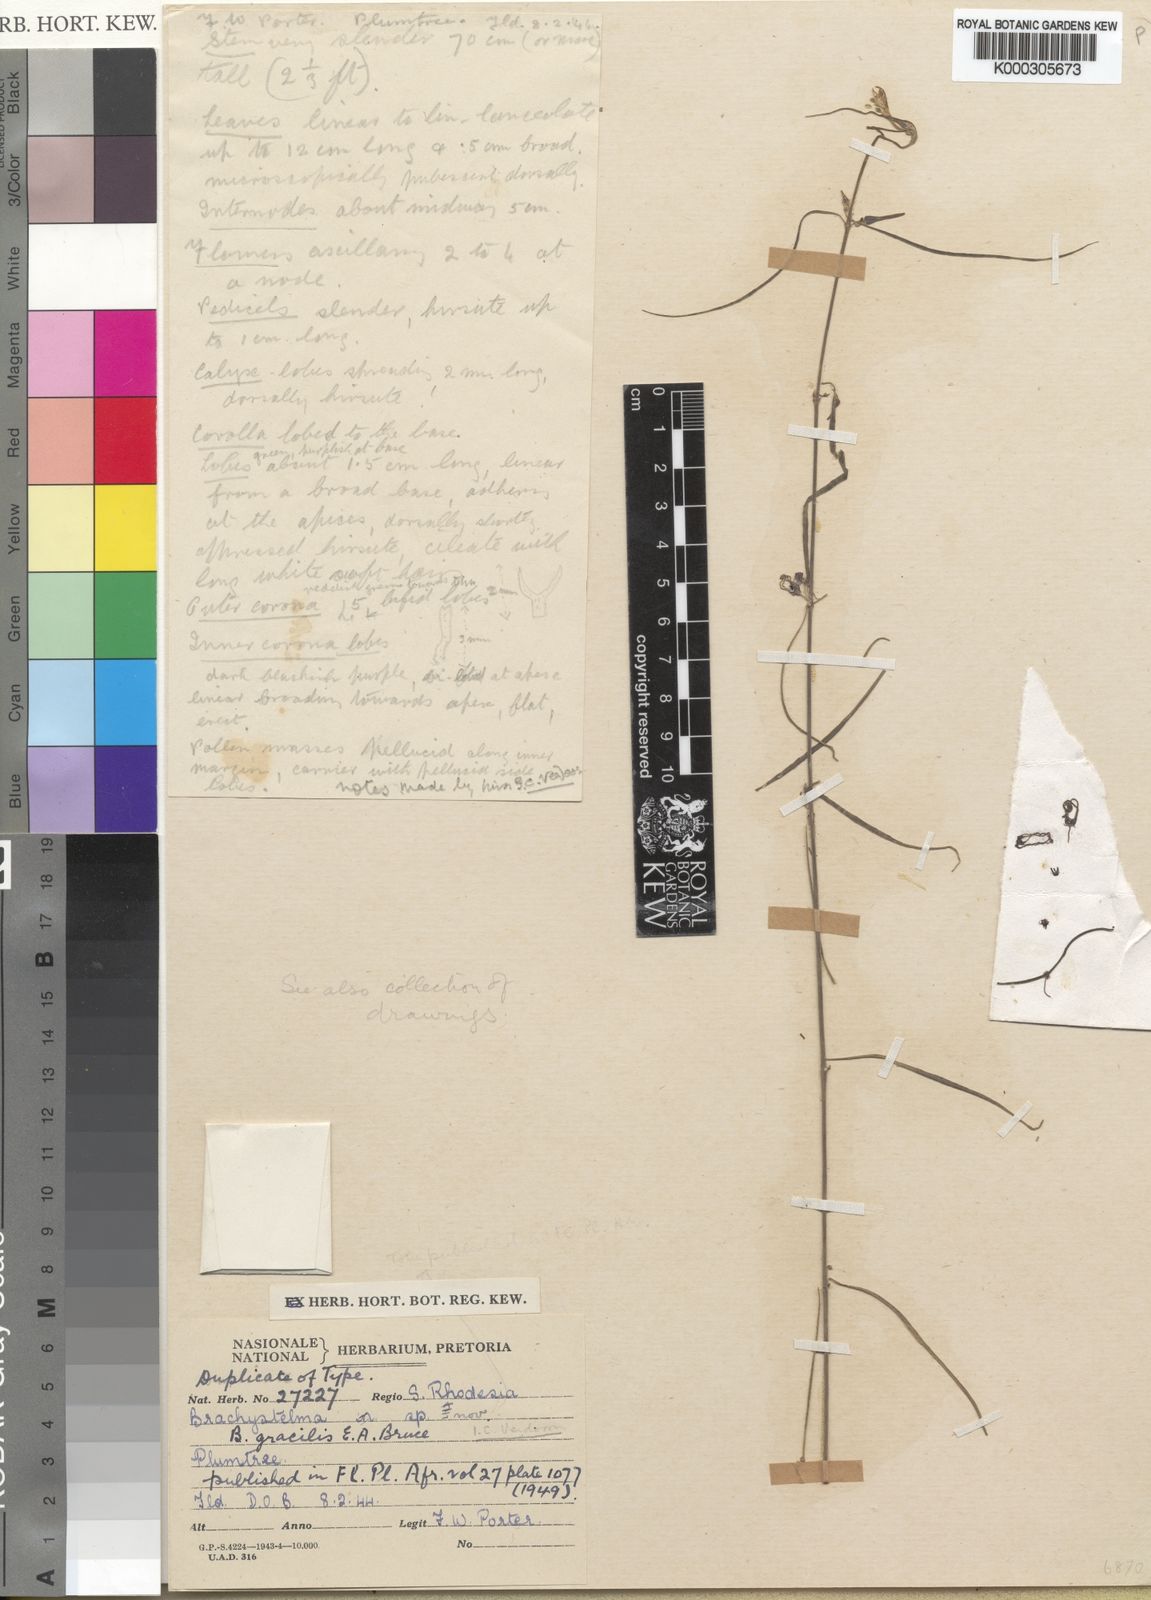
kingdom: Plantae
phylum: Tracheophyta
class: Magnoliopsida
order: Gentianales
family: Apocynaceae
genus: Ceropegia
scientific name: Ceropegia gracilior
